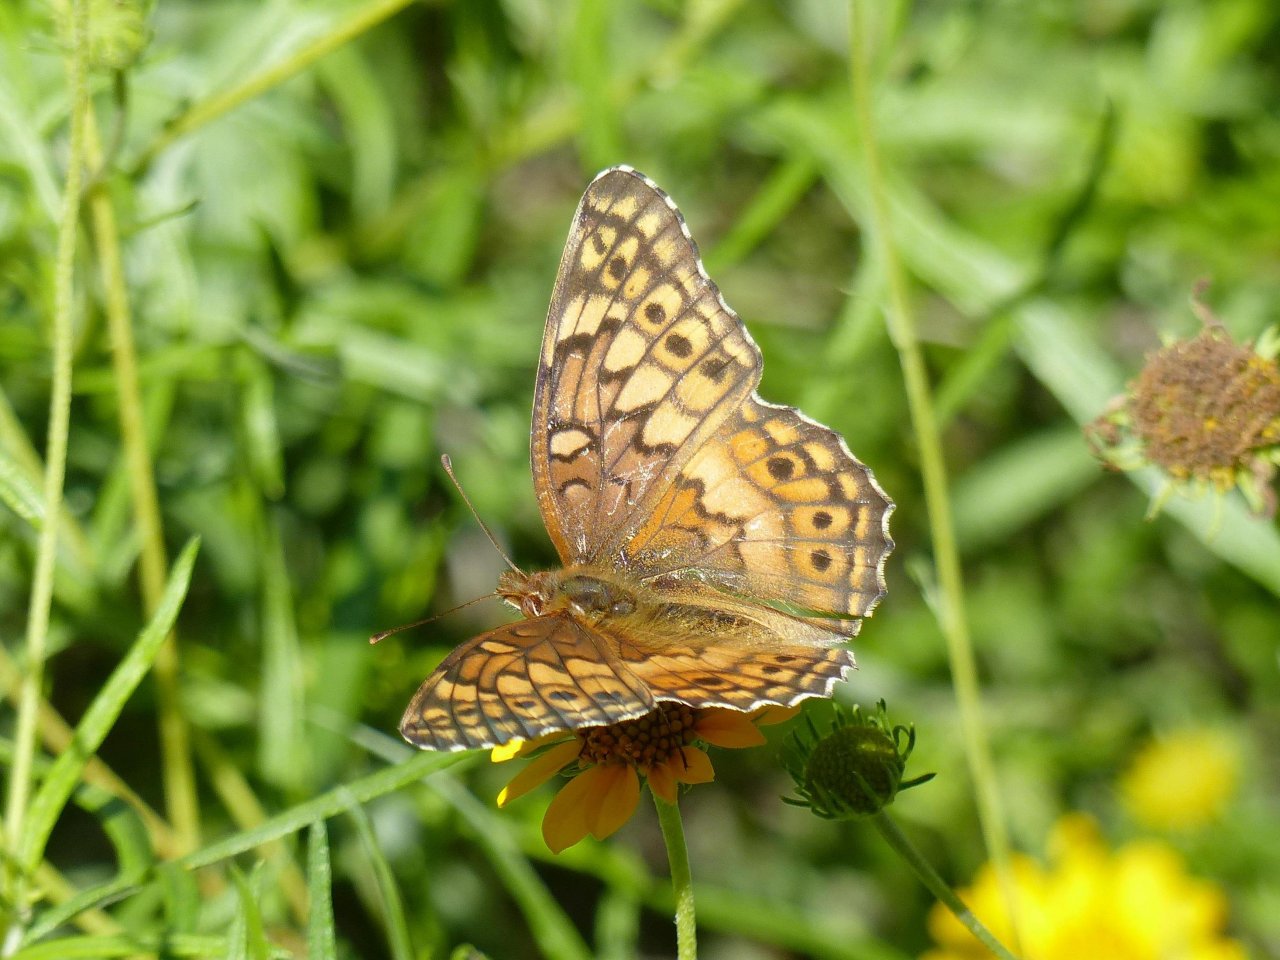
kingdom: Animalia
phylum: Arthropoda
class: Insecta
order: Lepidoptera
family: Nymphalidae
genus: Euptoieta
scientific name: Euptoieta claudia
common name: Variegated Fritillary
